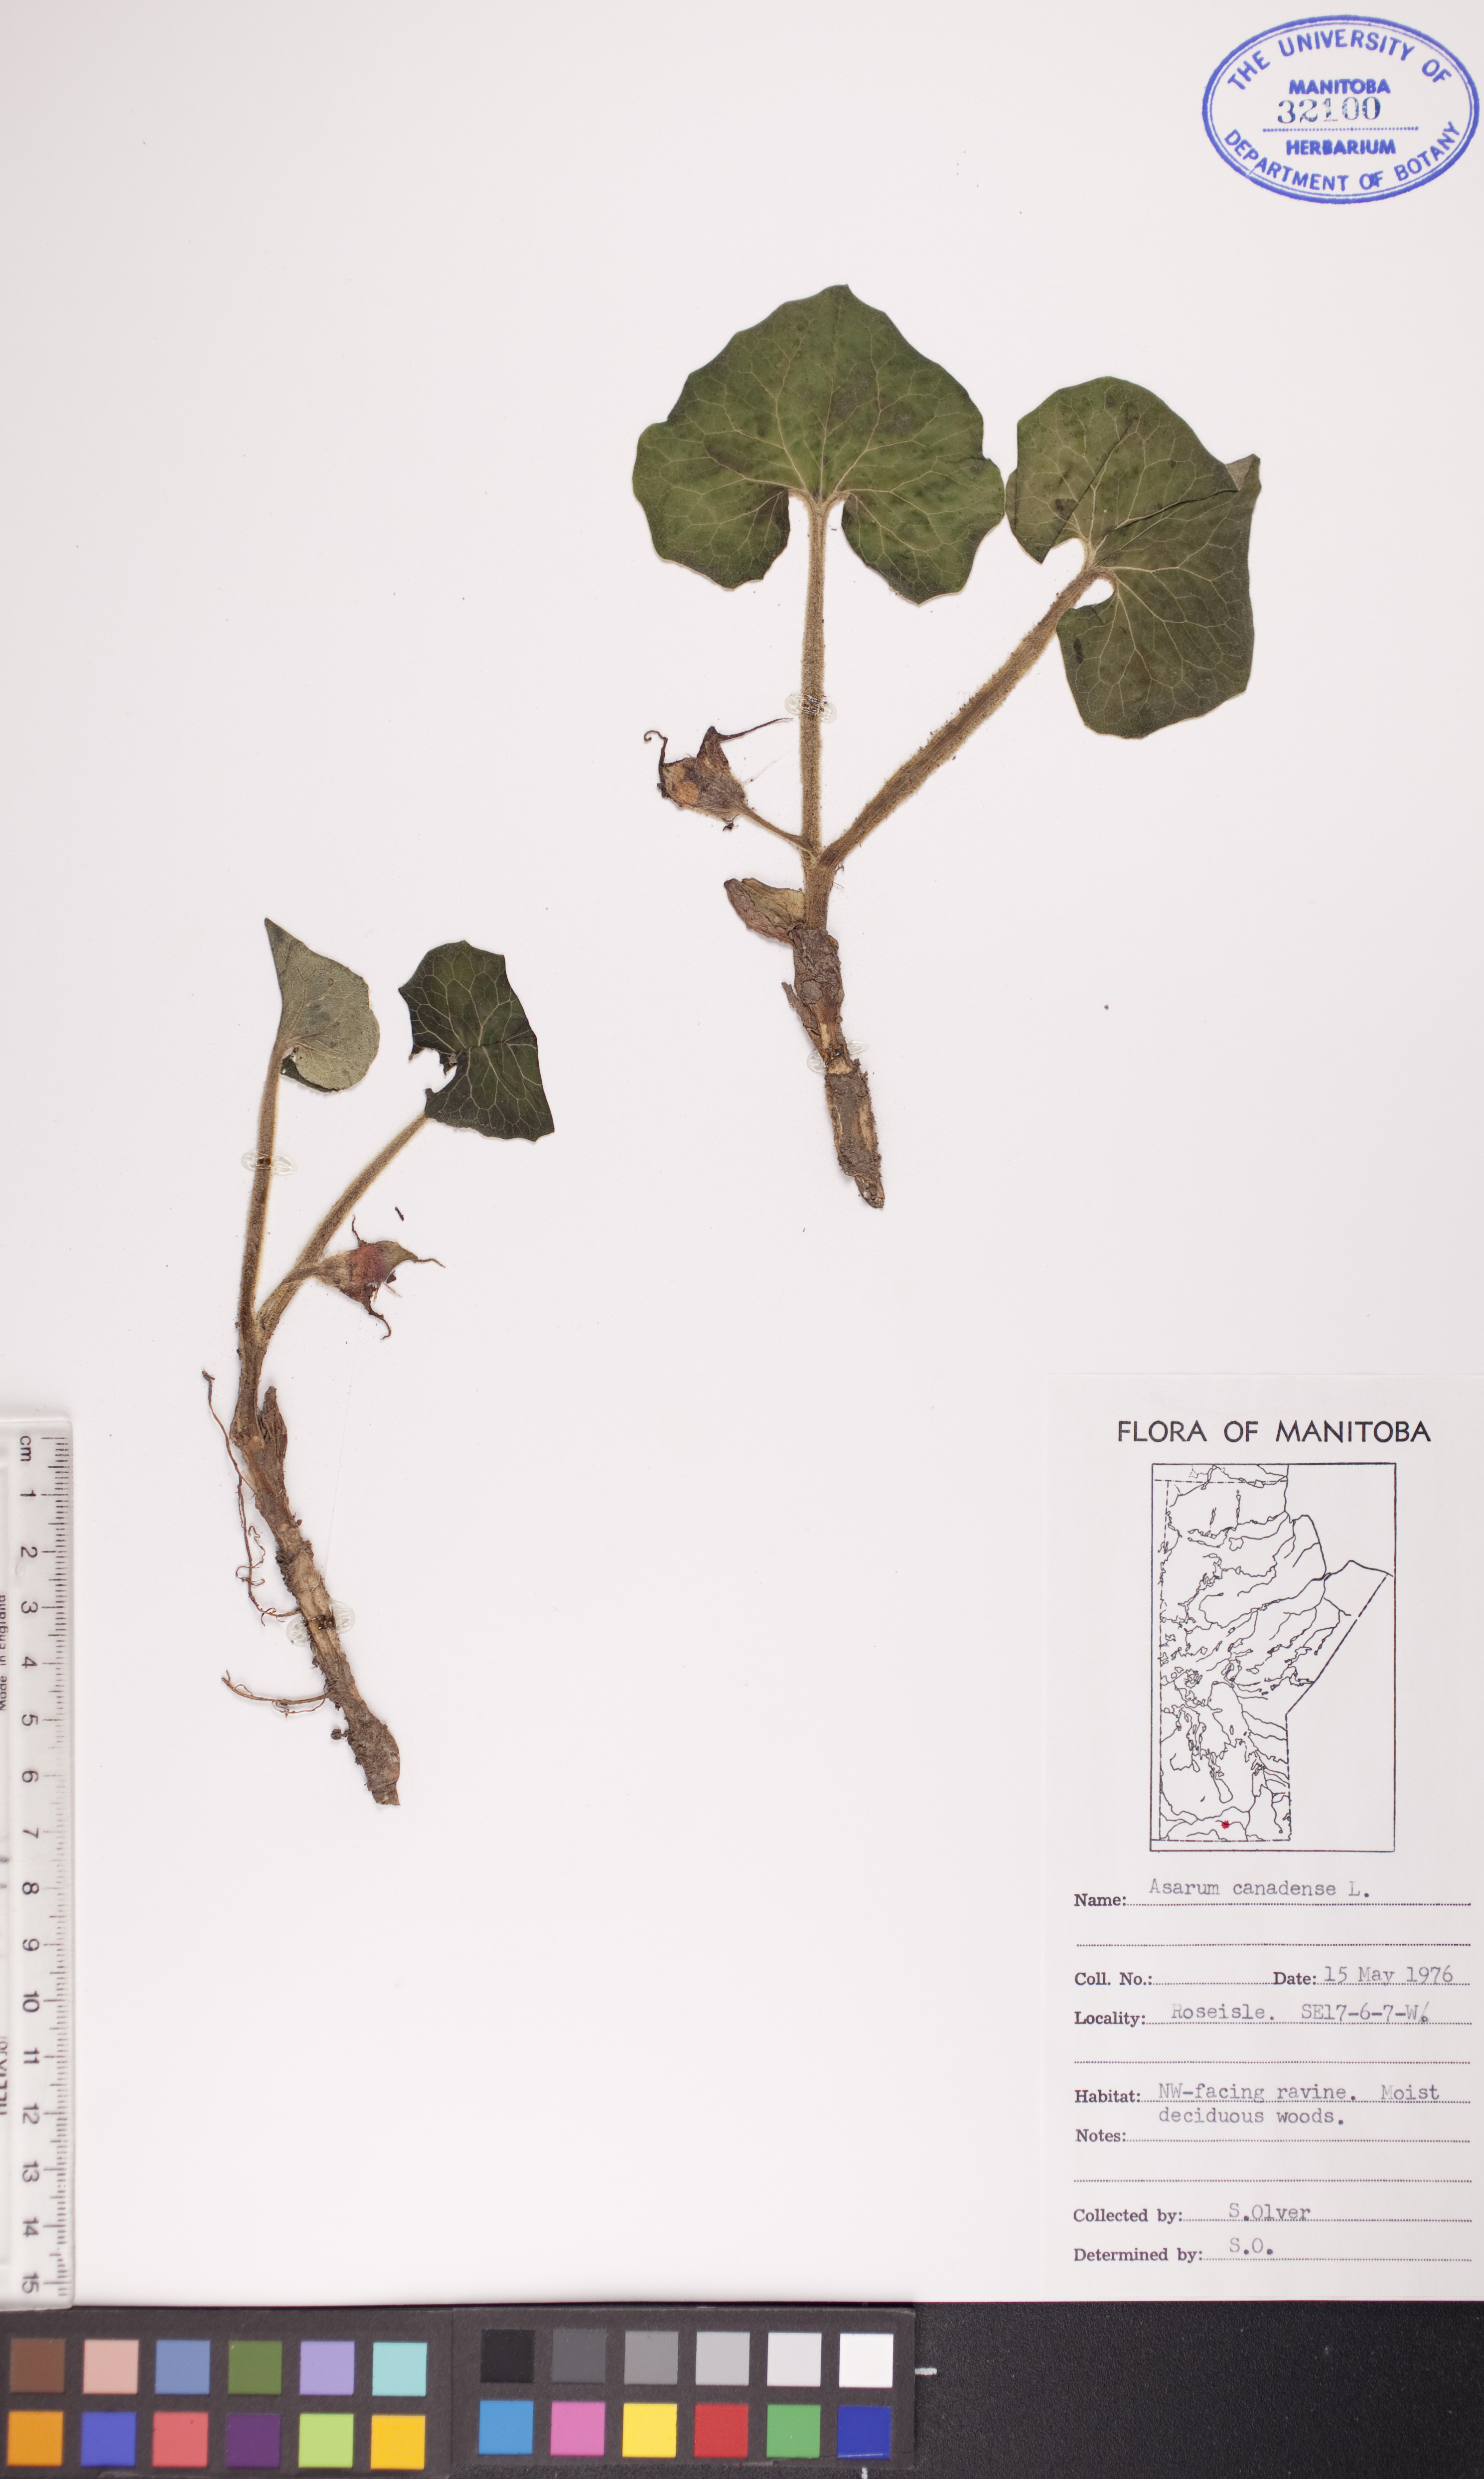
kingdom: Plantae
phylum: Tracheophyta
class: Magnoliopsida
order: Piperales
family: Aristolochiaceae
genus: Asarum
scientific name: Asarum canadense
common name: Wild ginger
